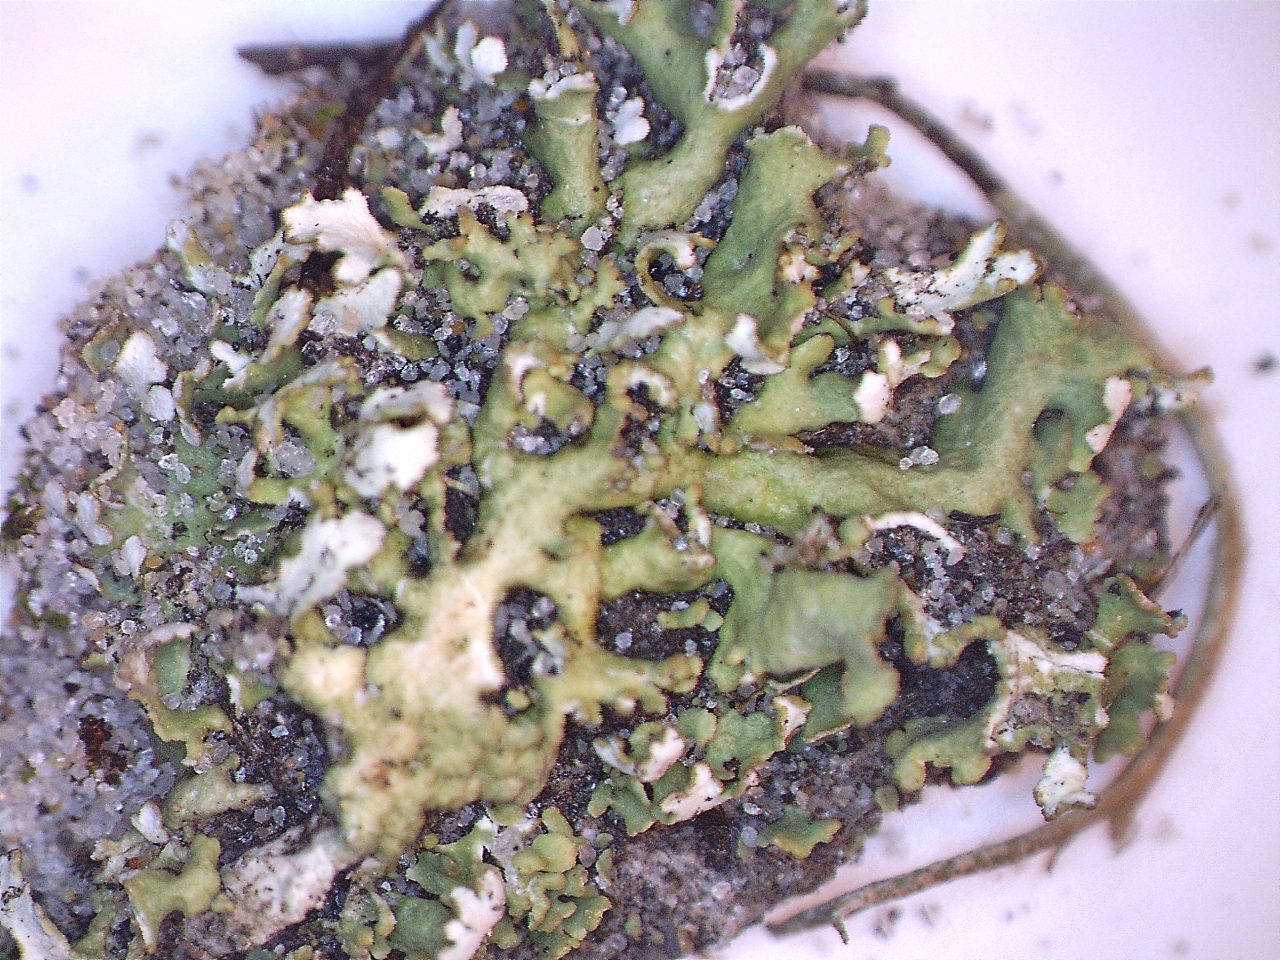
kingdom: Fungi
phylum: Ascomycota
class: Lecanoromycetes
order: Lecanorales
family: Cladoniaceae
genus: Cladonia
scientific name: Cladonia foliacea
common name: fliget bægerlav
